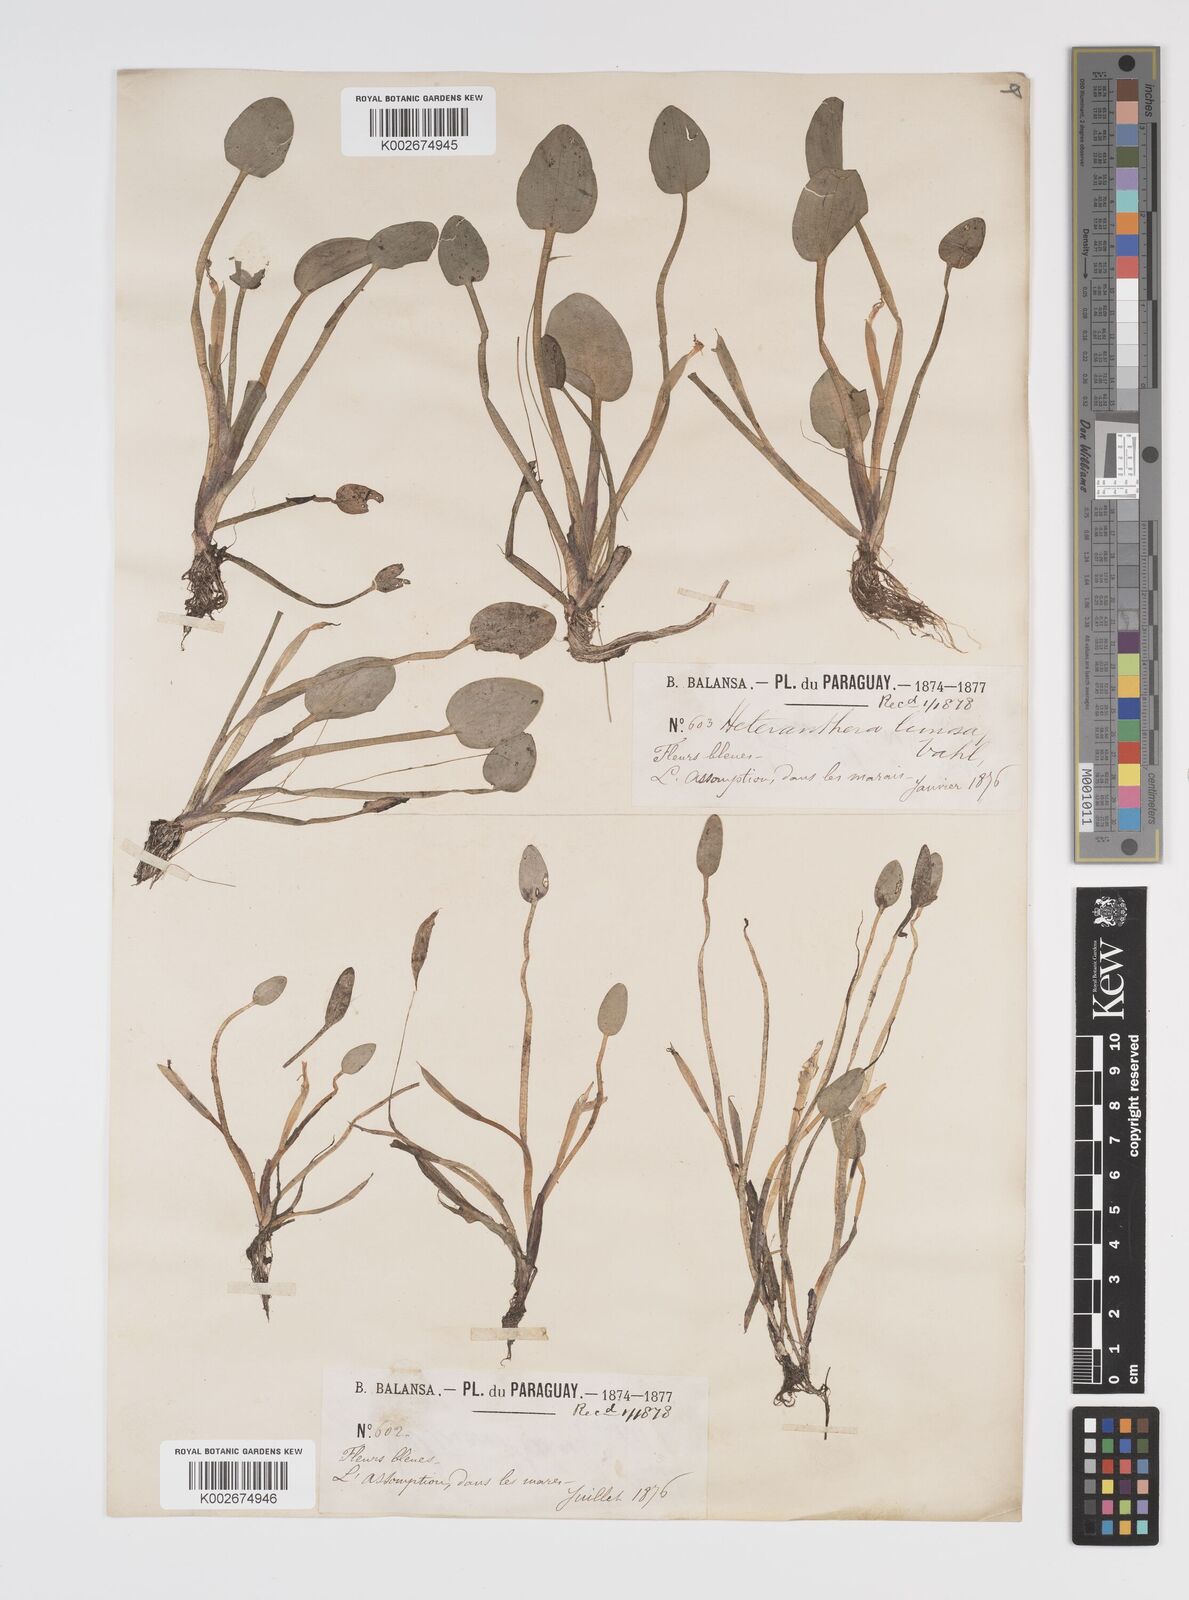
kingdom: Plantae
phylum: Tracheophyta
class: Liliopsida
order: Commelinales
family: Pontederiaceae
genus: Heteranthera
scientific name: Heteranthera limosa
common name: Blue mud-plantain
